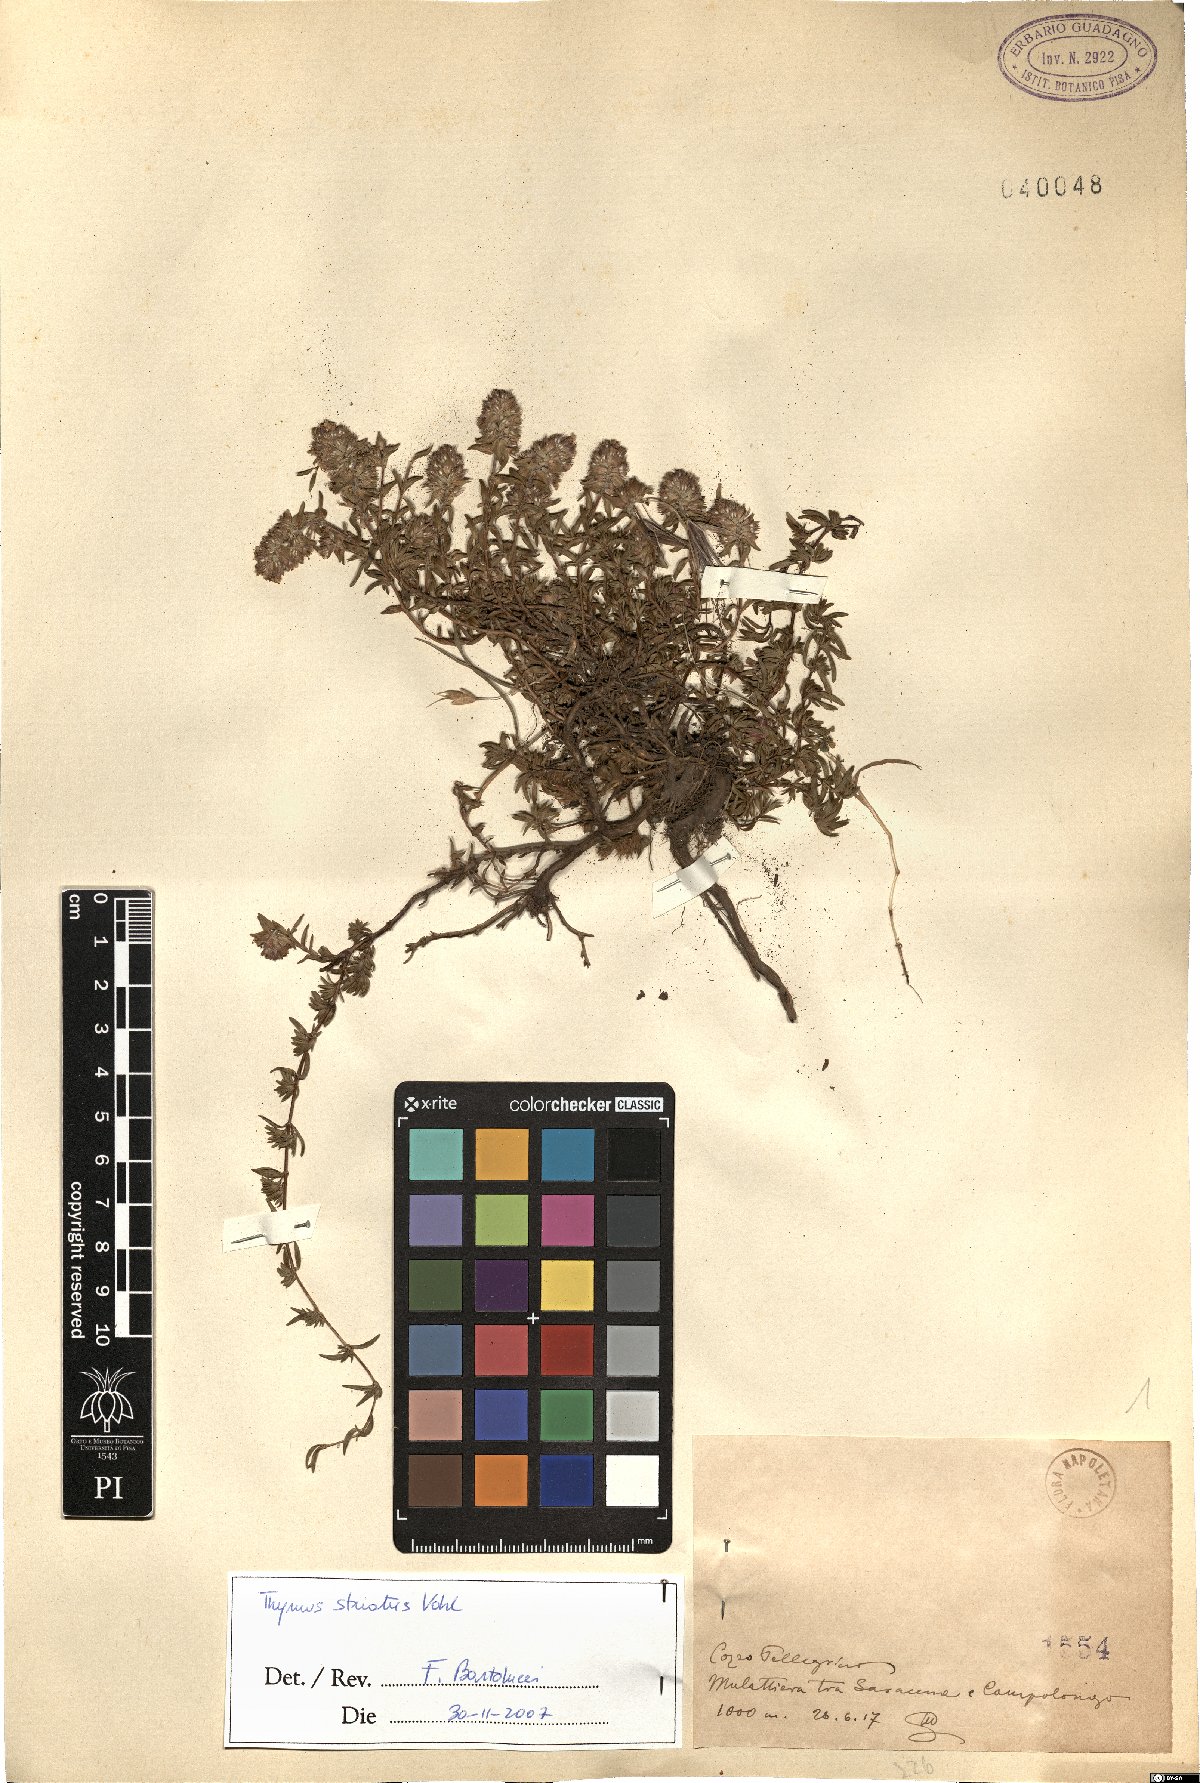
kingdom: Plantae
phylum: Tracheophyta
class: Magnoliopsida
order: Lamiales
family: Lamiaceae
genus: Thymus
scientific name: Thymus striatus
